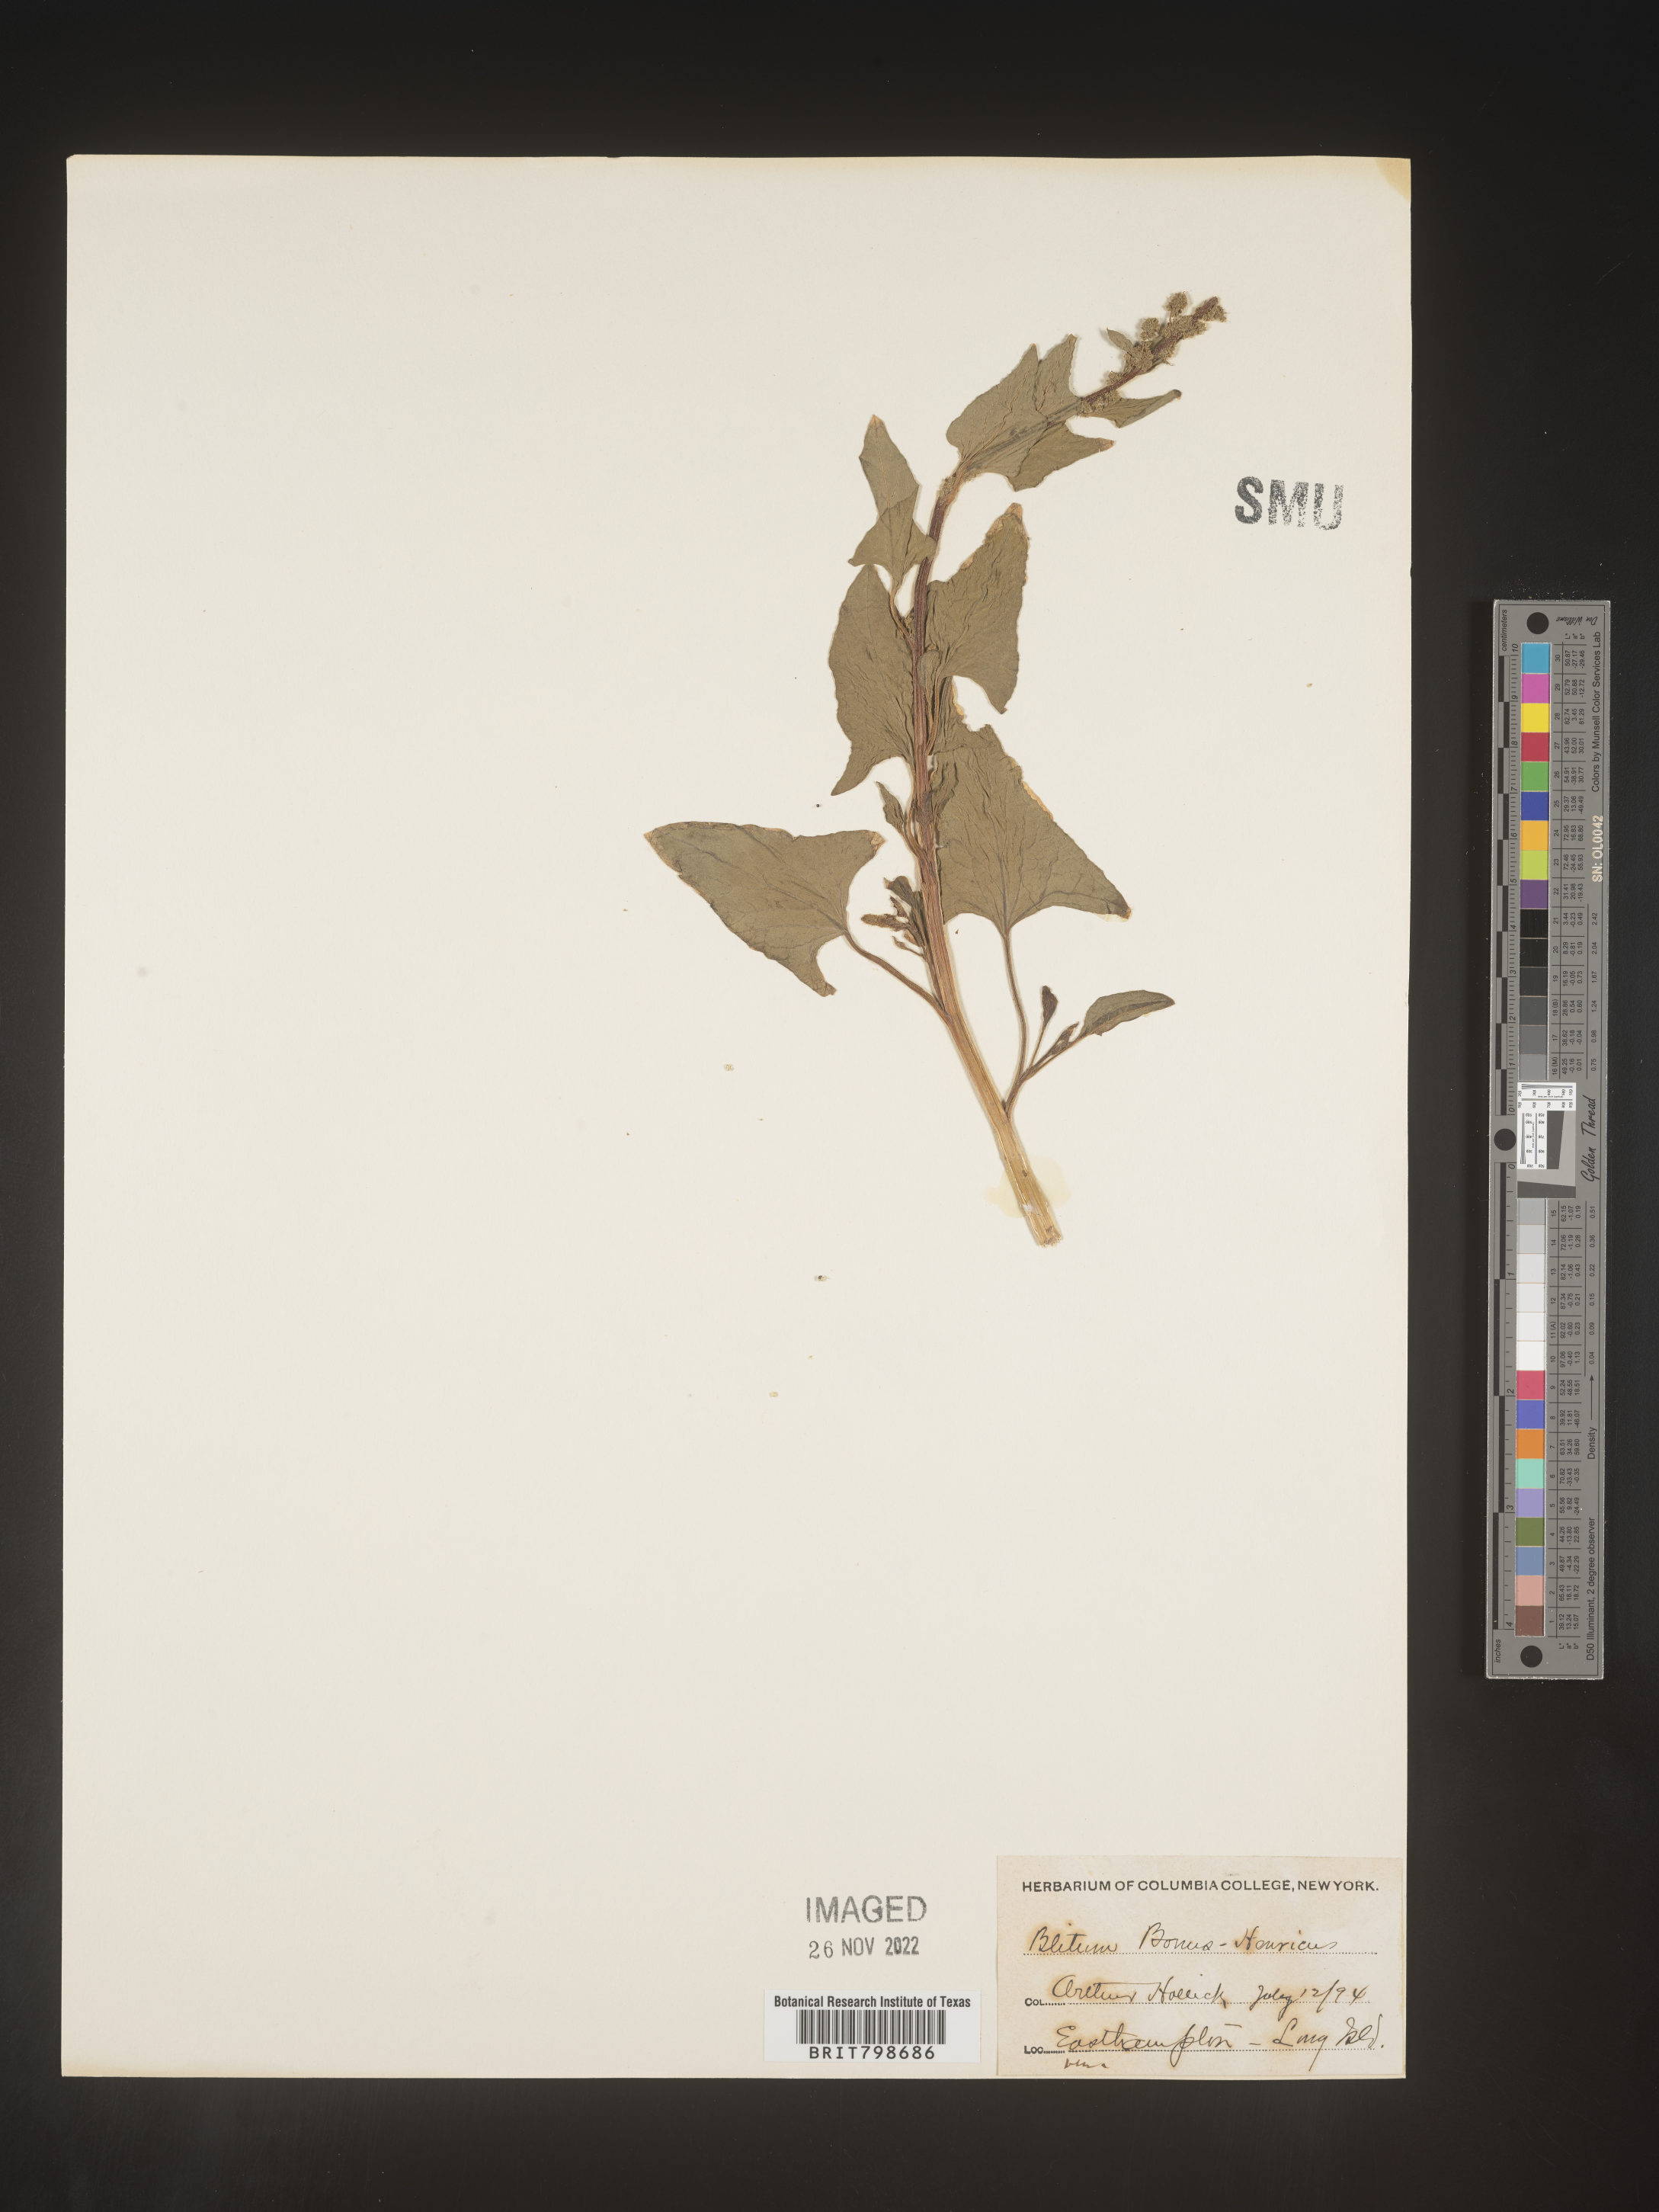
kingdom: Plantae
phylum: Tracheophyta
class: Magnoliopsida
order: Caryophyllales
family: Amaranthaceae
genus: Blitum
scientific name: Blitum bonus-henricus
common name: Good king henry
